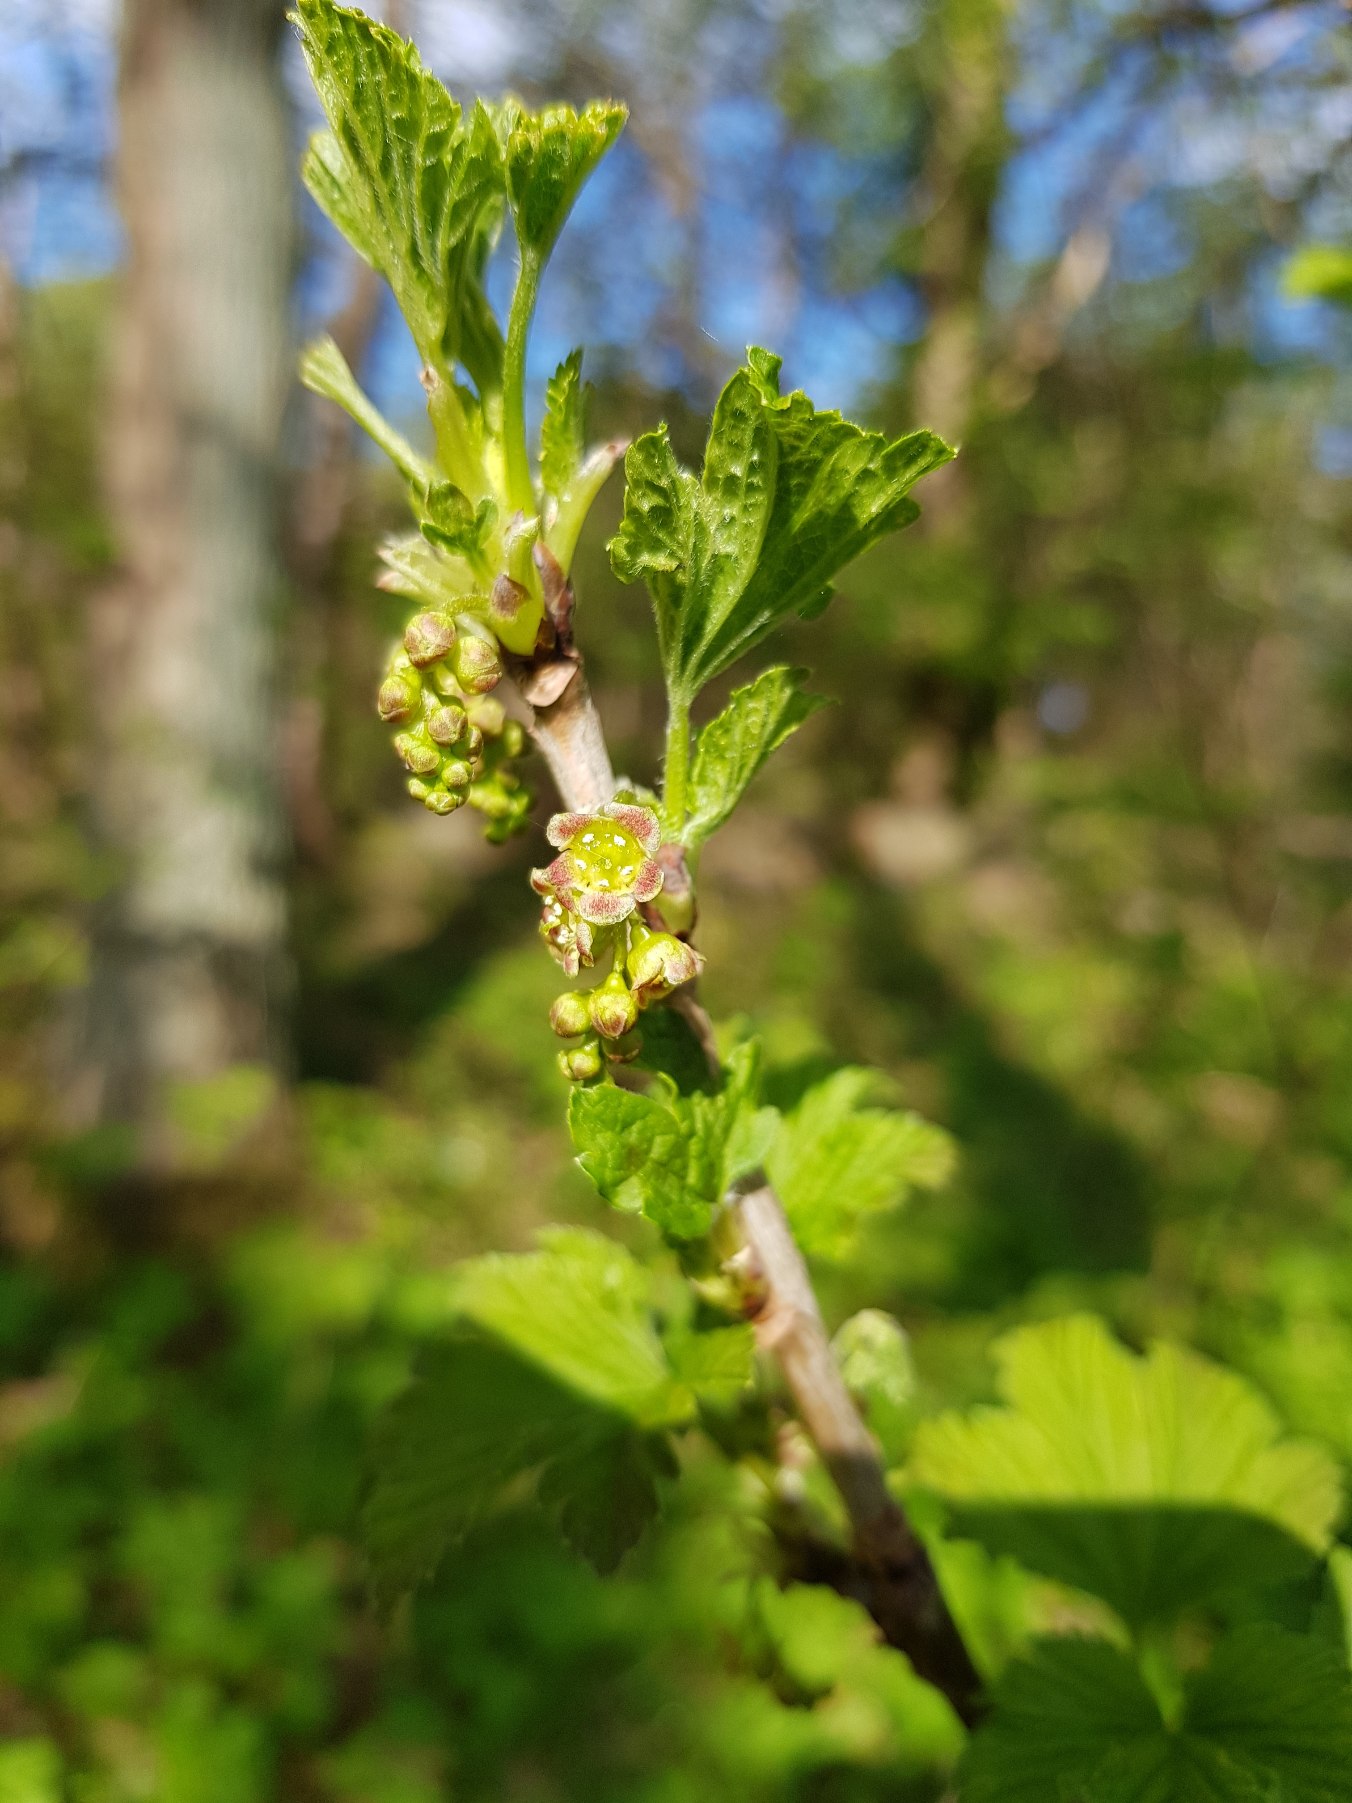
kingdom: Plantae
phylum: Tracheophyta
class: Magnoliopsida
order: Saxifragales
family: Grossulariaceae
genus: Ribes
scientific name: Ribes rubrum
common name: Have-ribs
